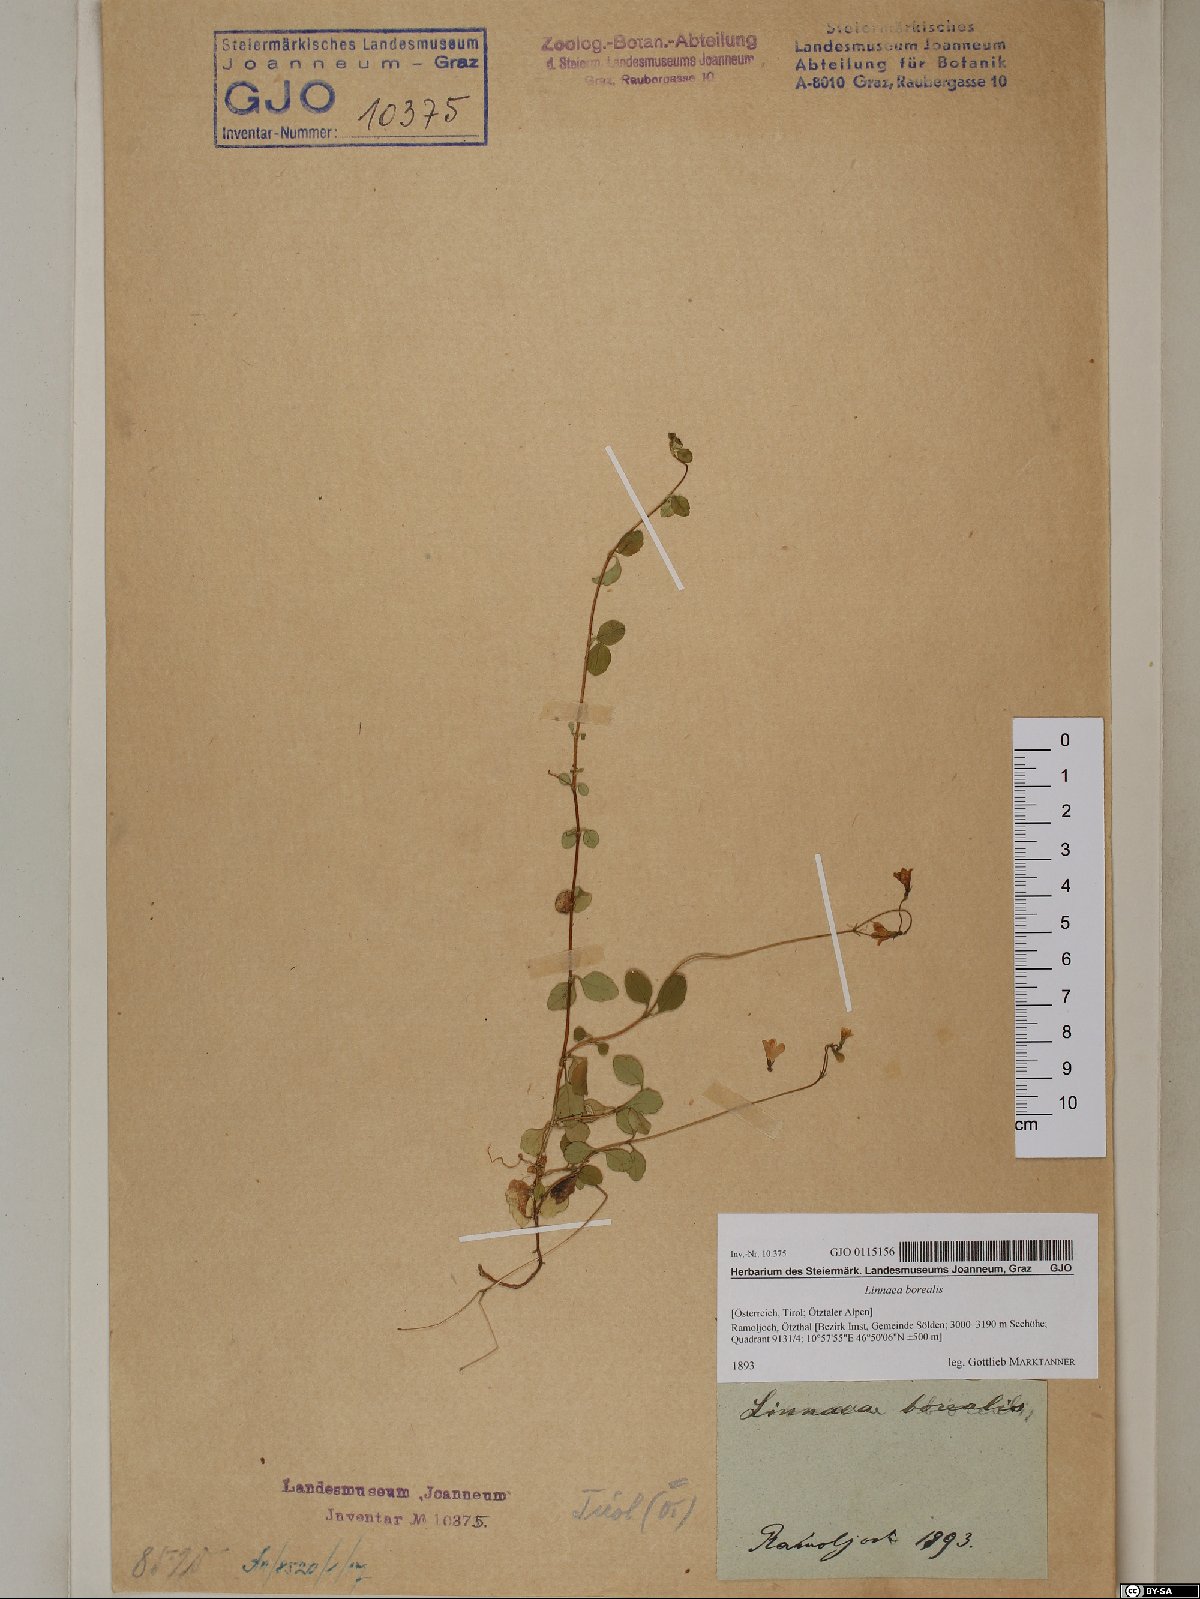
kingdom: Plantae
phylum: Tracheophyta
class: Magnoliopsida
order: Dipsacales
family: Caprifoliaceae
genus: Linnaea
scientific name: Linnaea borealis
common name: Twinflower
